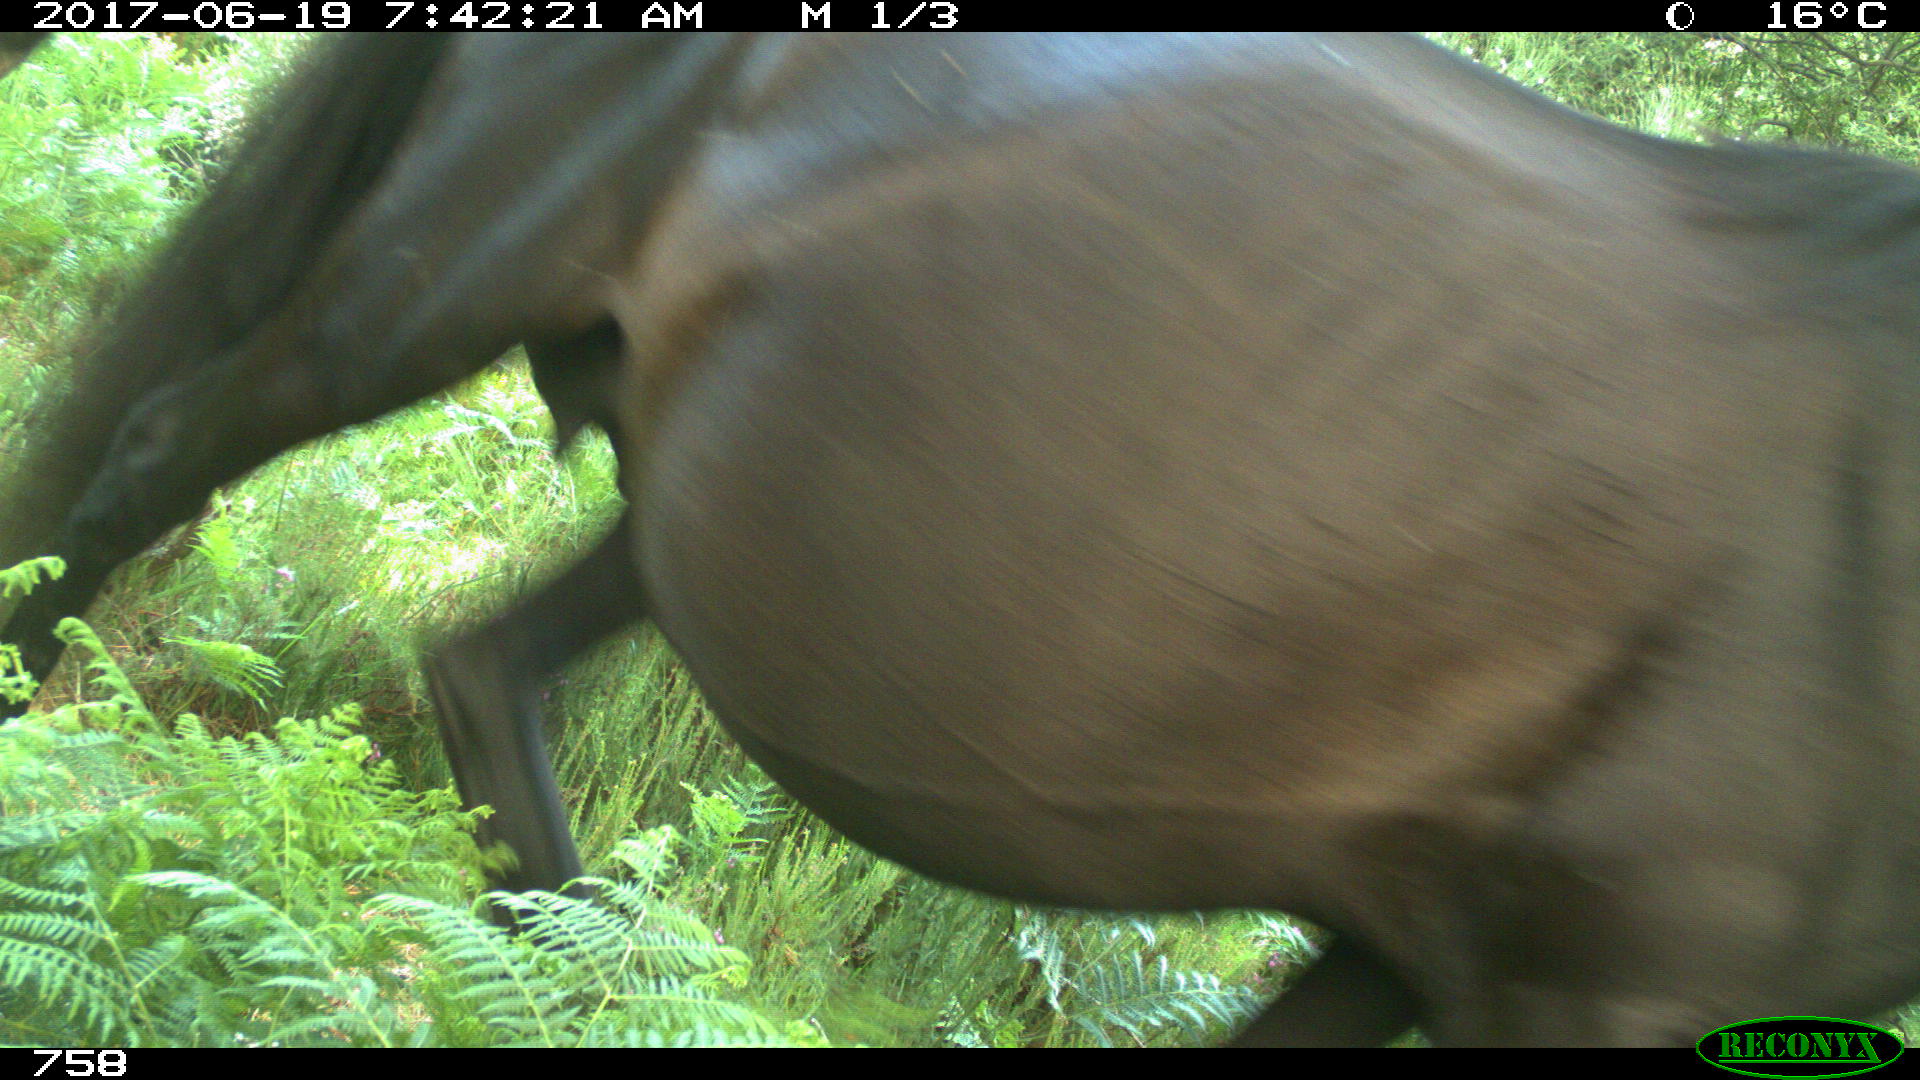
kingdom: Animalia
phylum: Chordata
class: Mammalia
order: Perissodactyla
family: Equidae
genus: Equus
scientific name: Equus caballus
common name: Horse
